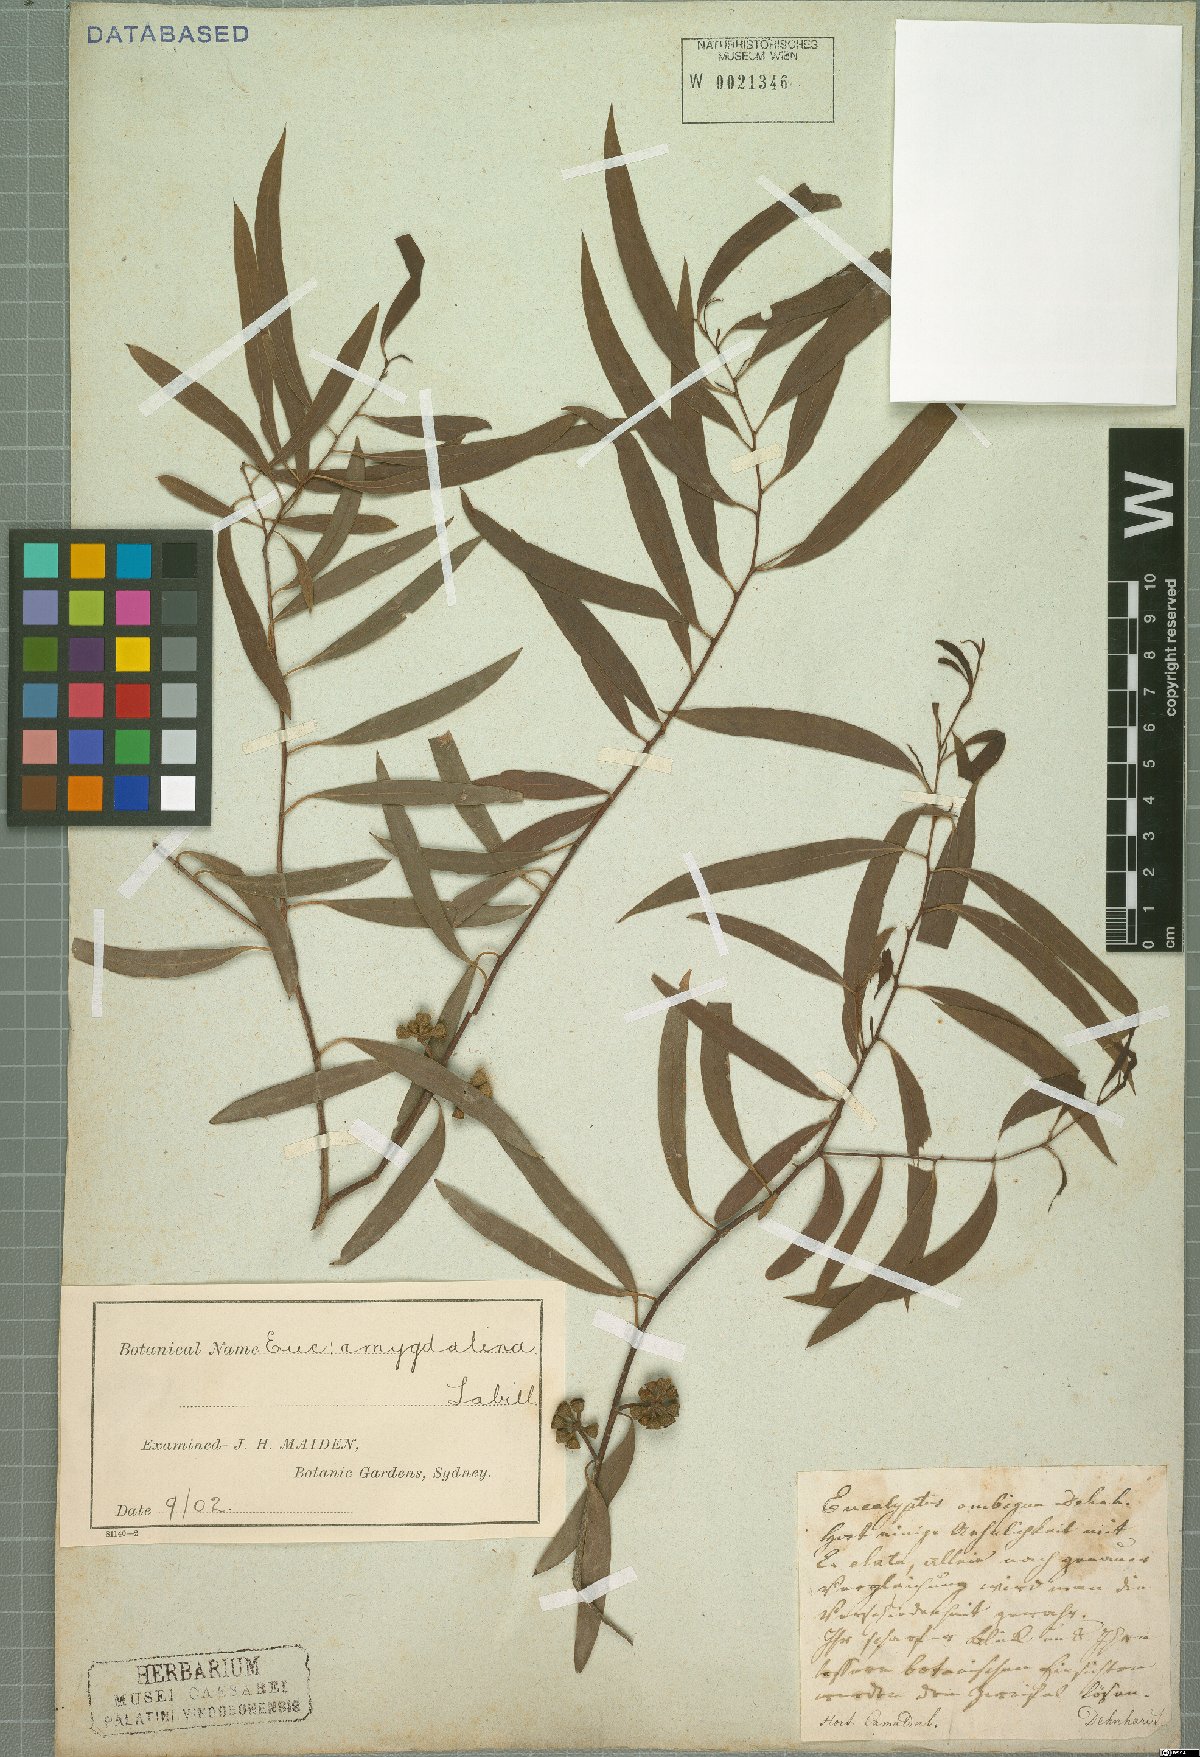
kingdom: Plantae
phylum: Tracheophyta
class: Magnoliopsida
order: Myrtales
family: Myrtaceae
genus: Eucalyptus
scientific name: Eucalyptus amygdalina
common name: Black peppermint
